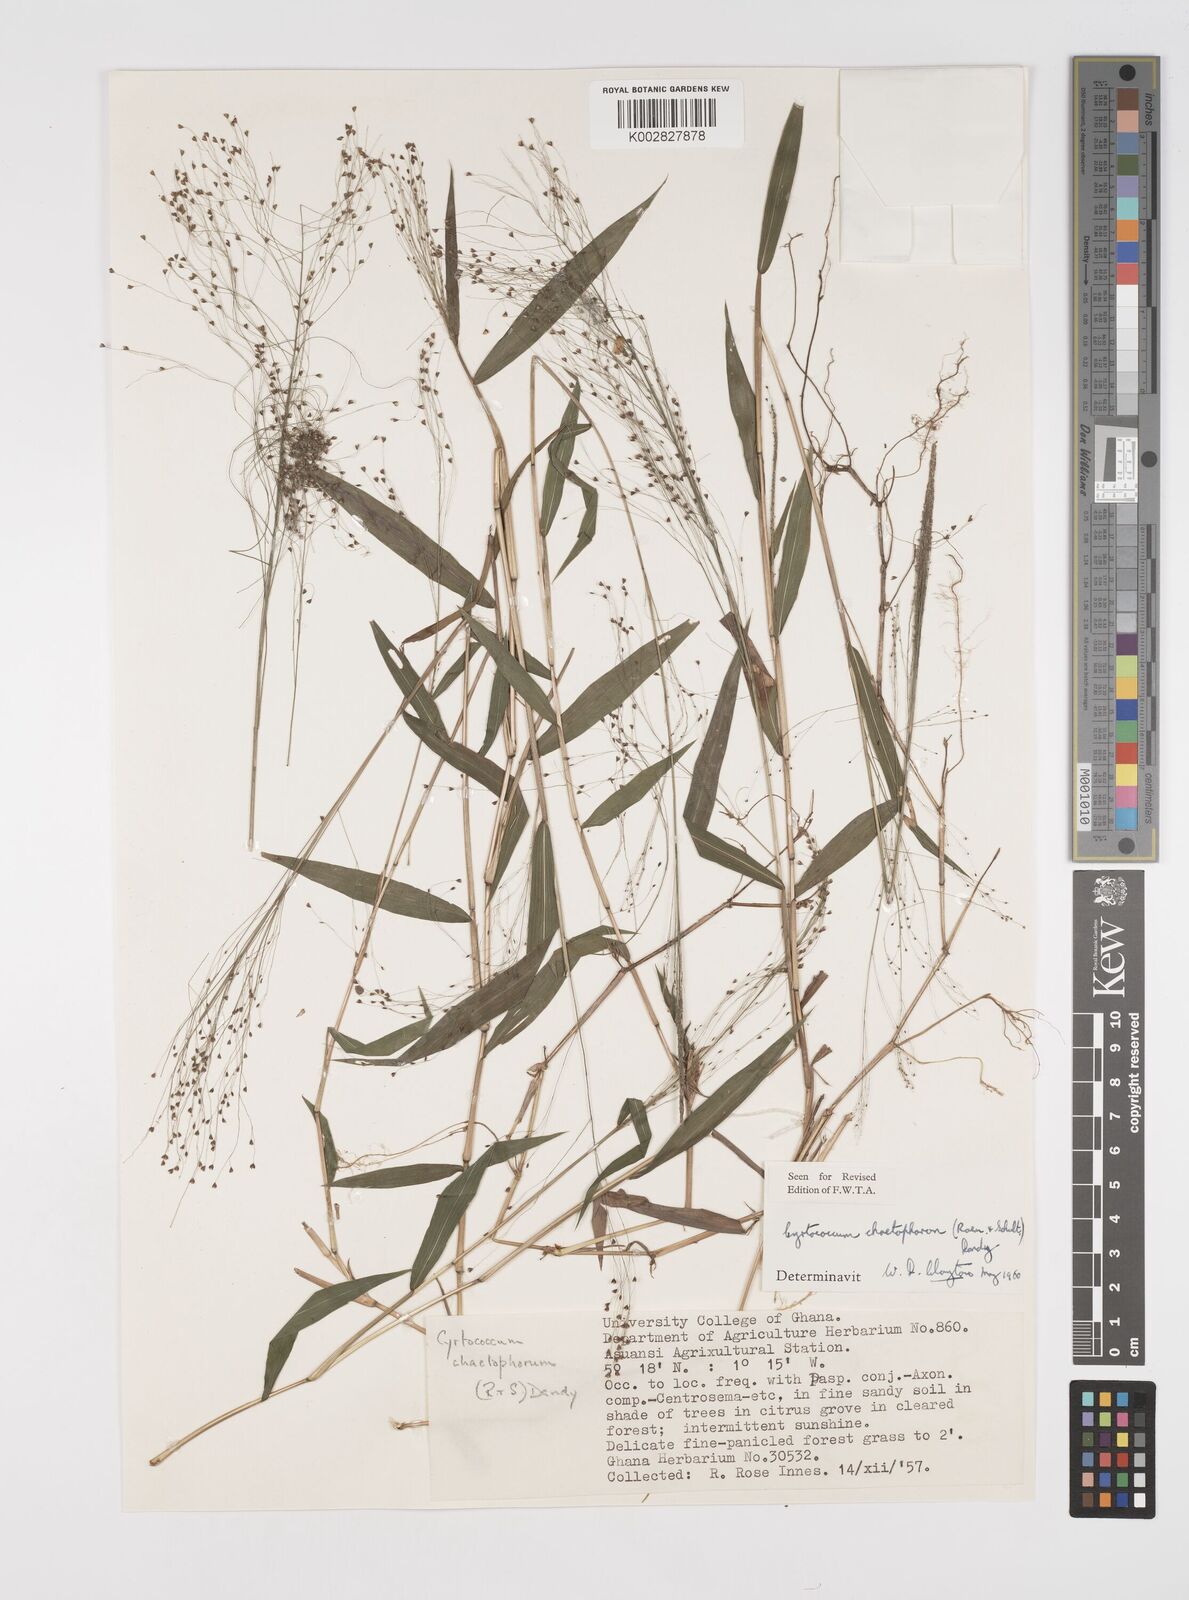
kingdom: Plantae
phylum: Tracheophyta
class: Liliopsida
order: Poales
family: Poaceae
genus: Cyrtococcum
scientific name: Cyrtococcum chaetophoron
